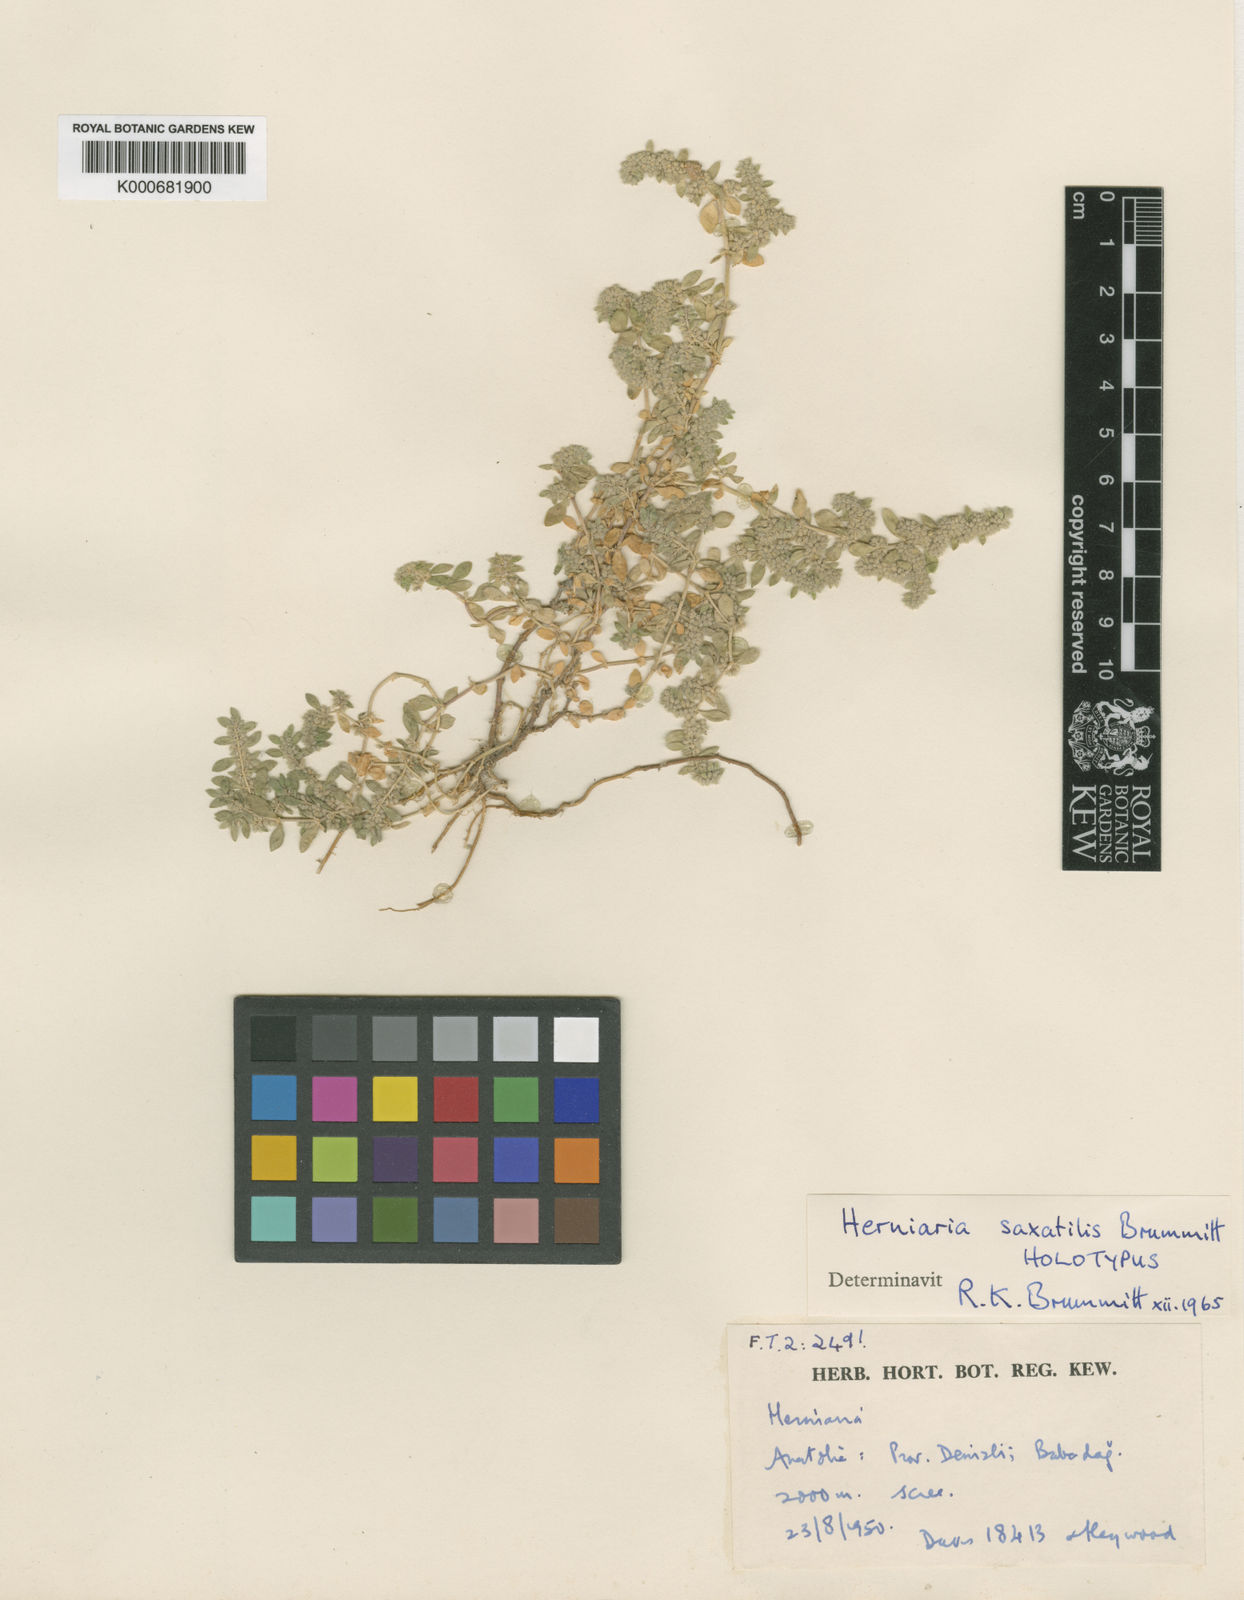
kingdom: Plantae
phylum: Tracheophyta
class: Magnoliopsida
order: Caryophyllales
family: Caryophyllaceae
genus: Herniaria
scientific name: Herniaria saxatilis
